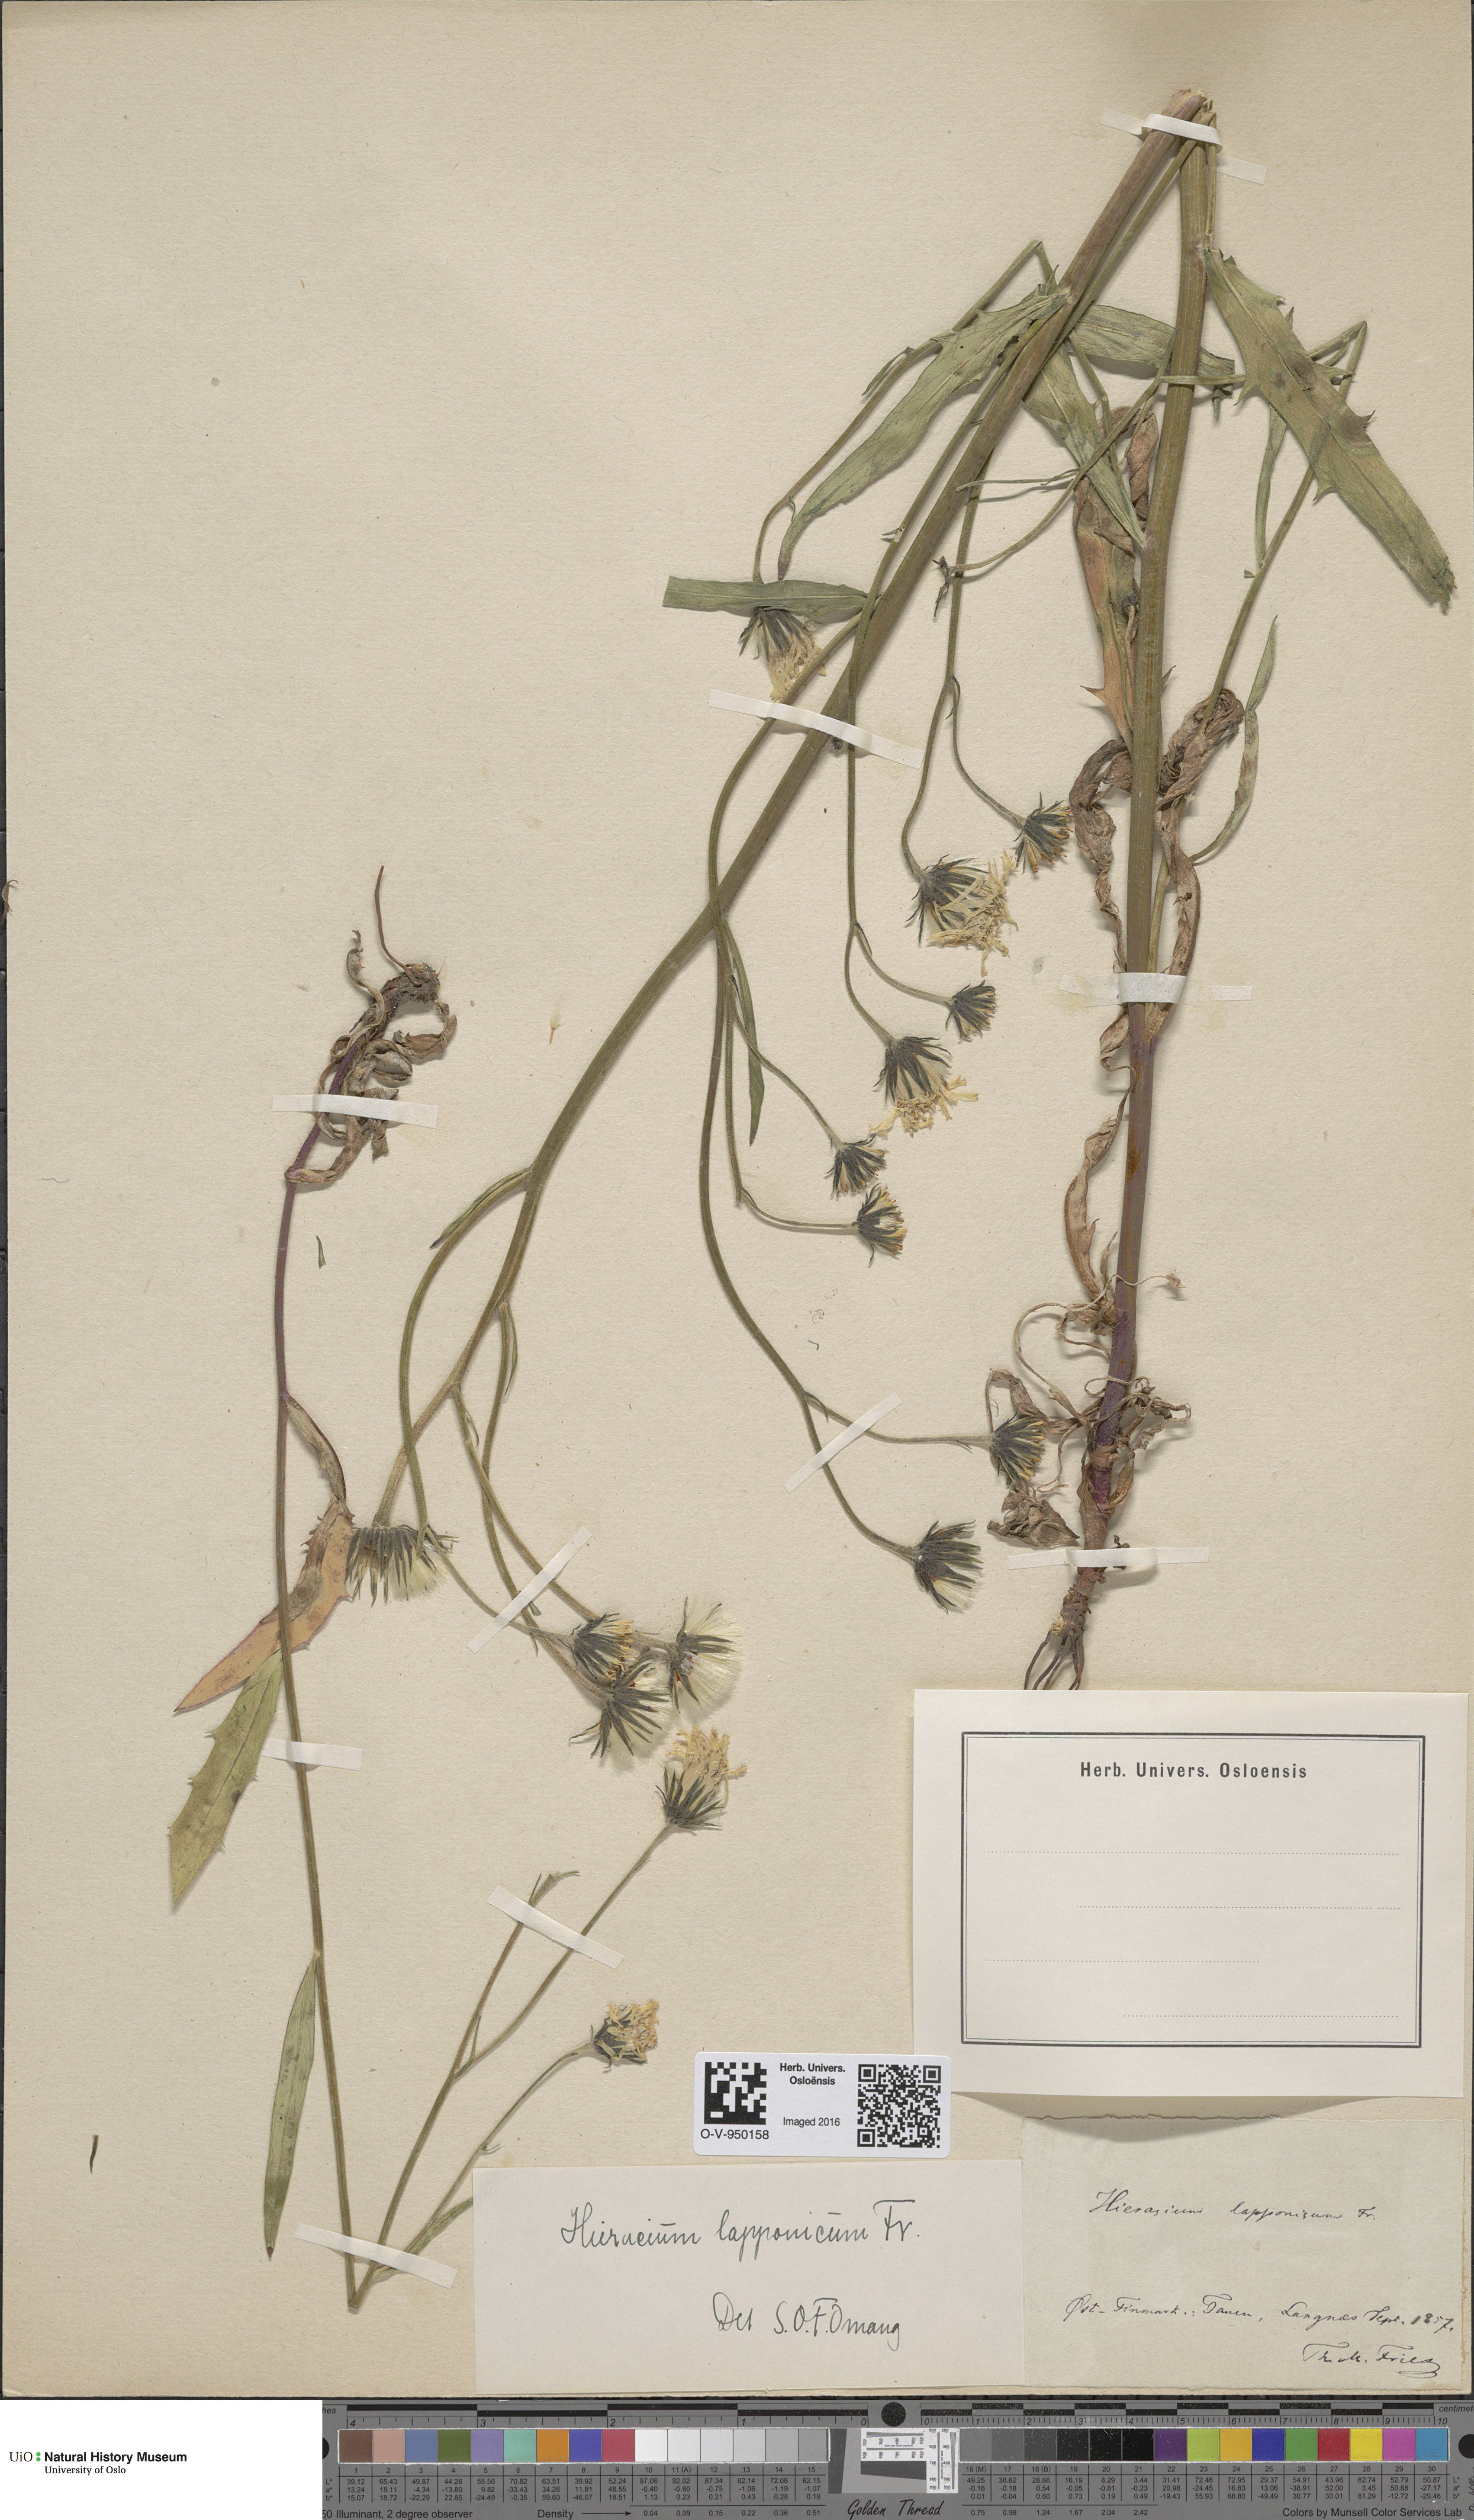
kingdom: Plantae
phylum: Tracheophyta
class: Magnoliopsida
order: Asterales
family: Asteraceae
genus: Hieracium
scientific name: Hieracium lapponicum
